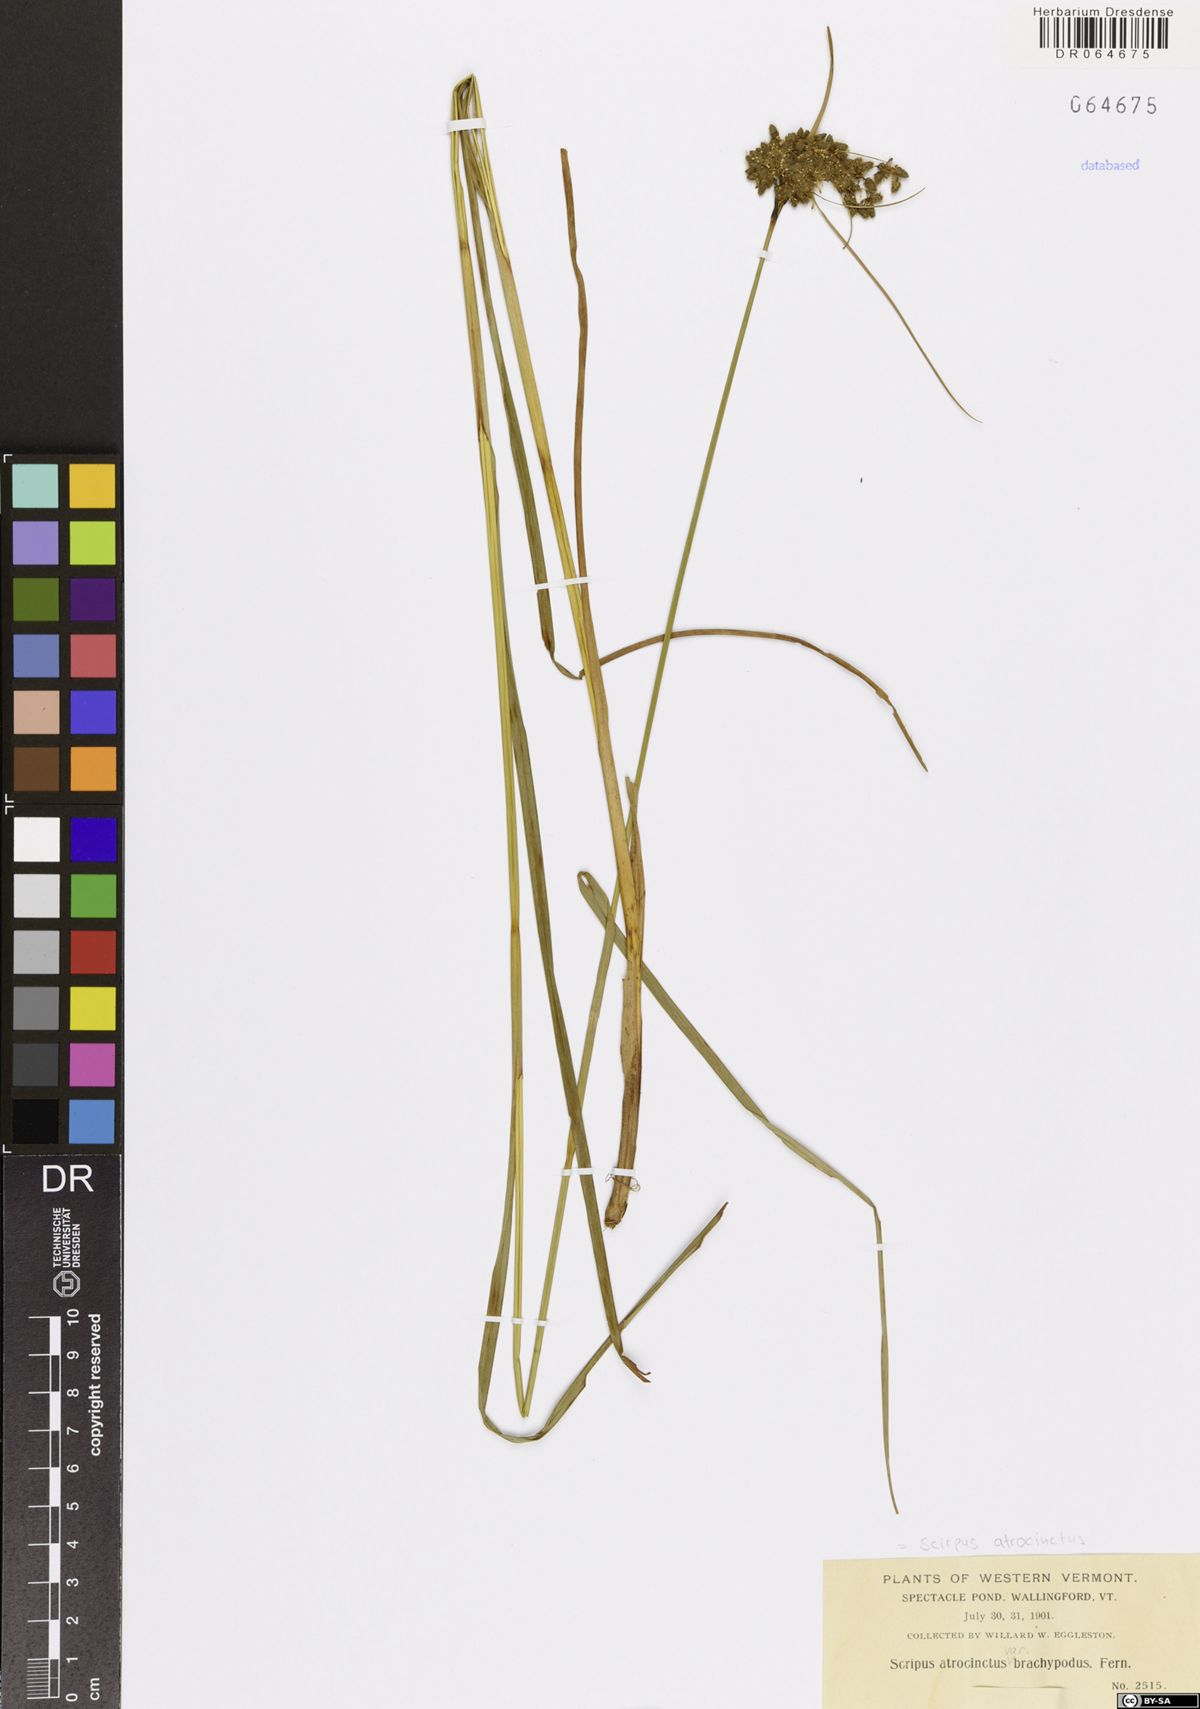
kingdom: Plantae
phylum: Tracheophyta
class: Liliopsida
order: Poales
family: Cyperaceae
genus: Scirpus
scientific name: Scirpus atrocinctus
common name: Black-girdled bulrush
